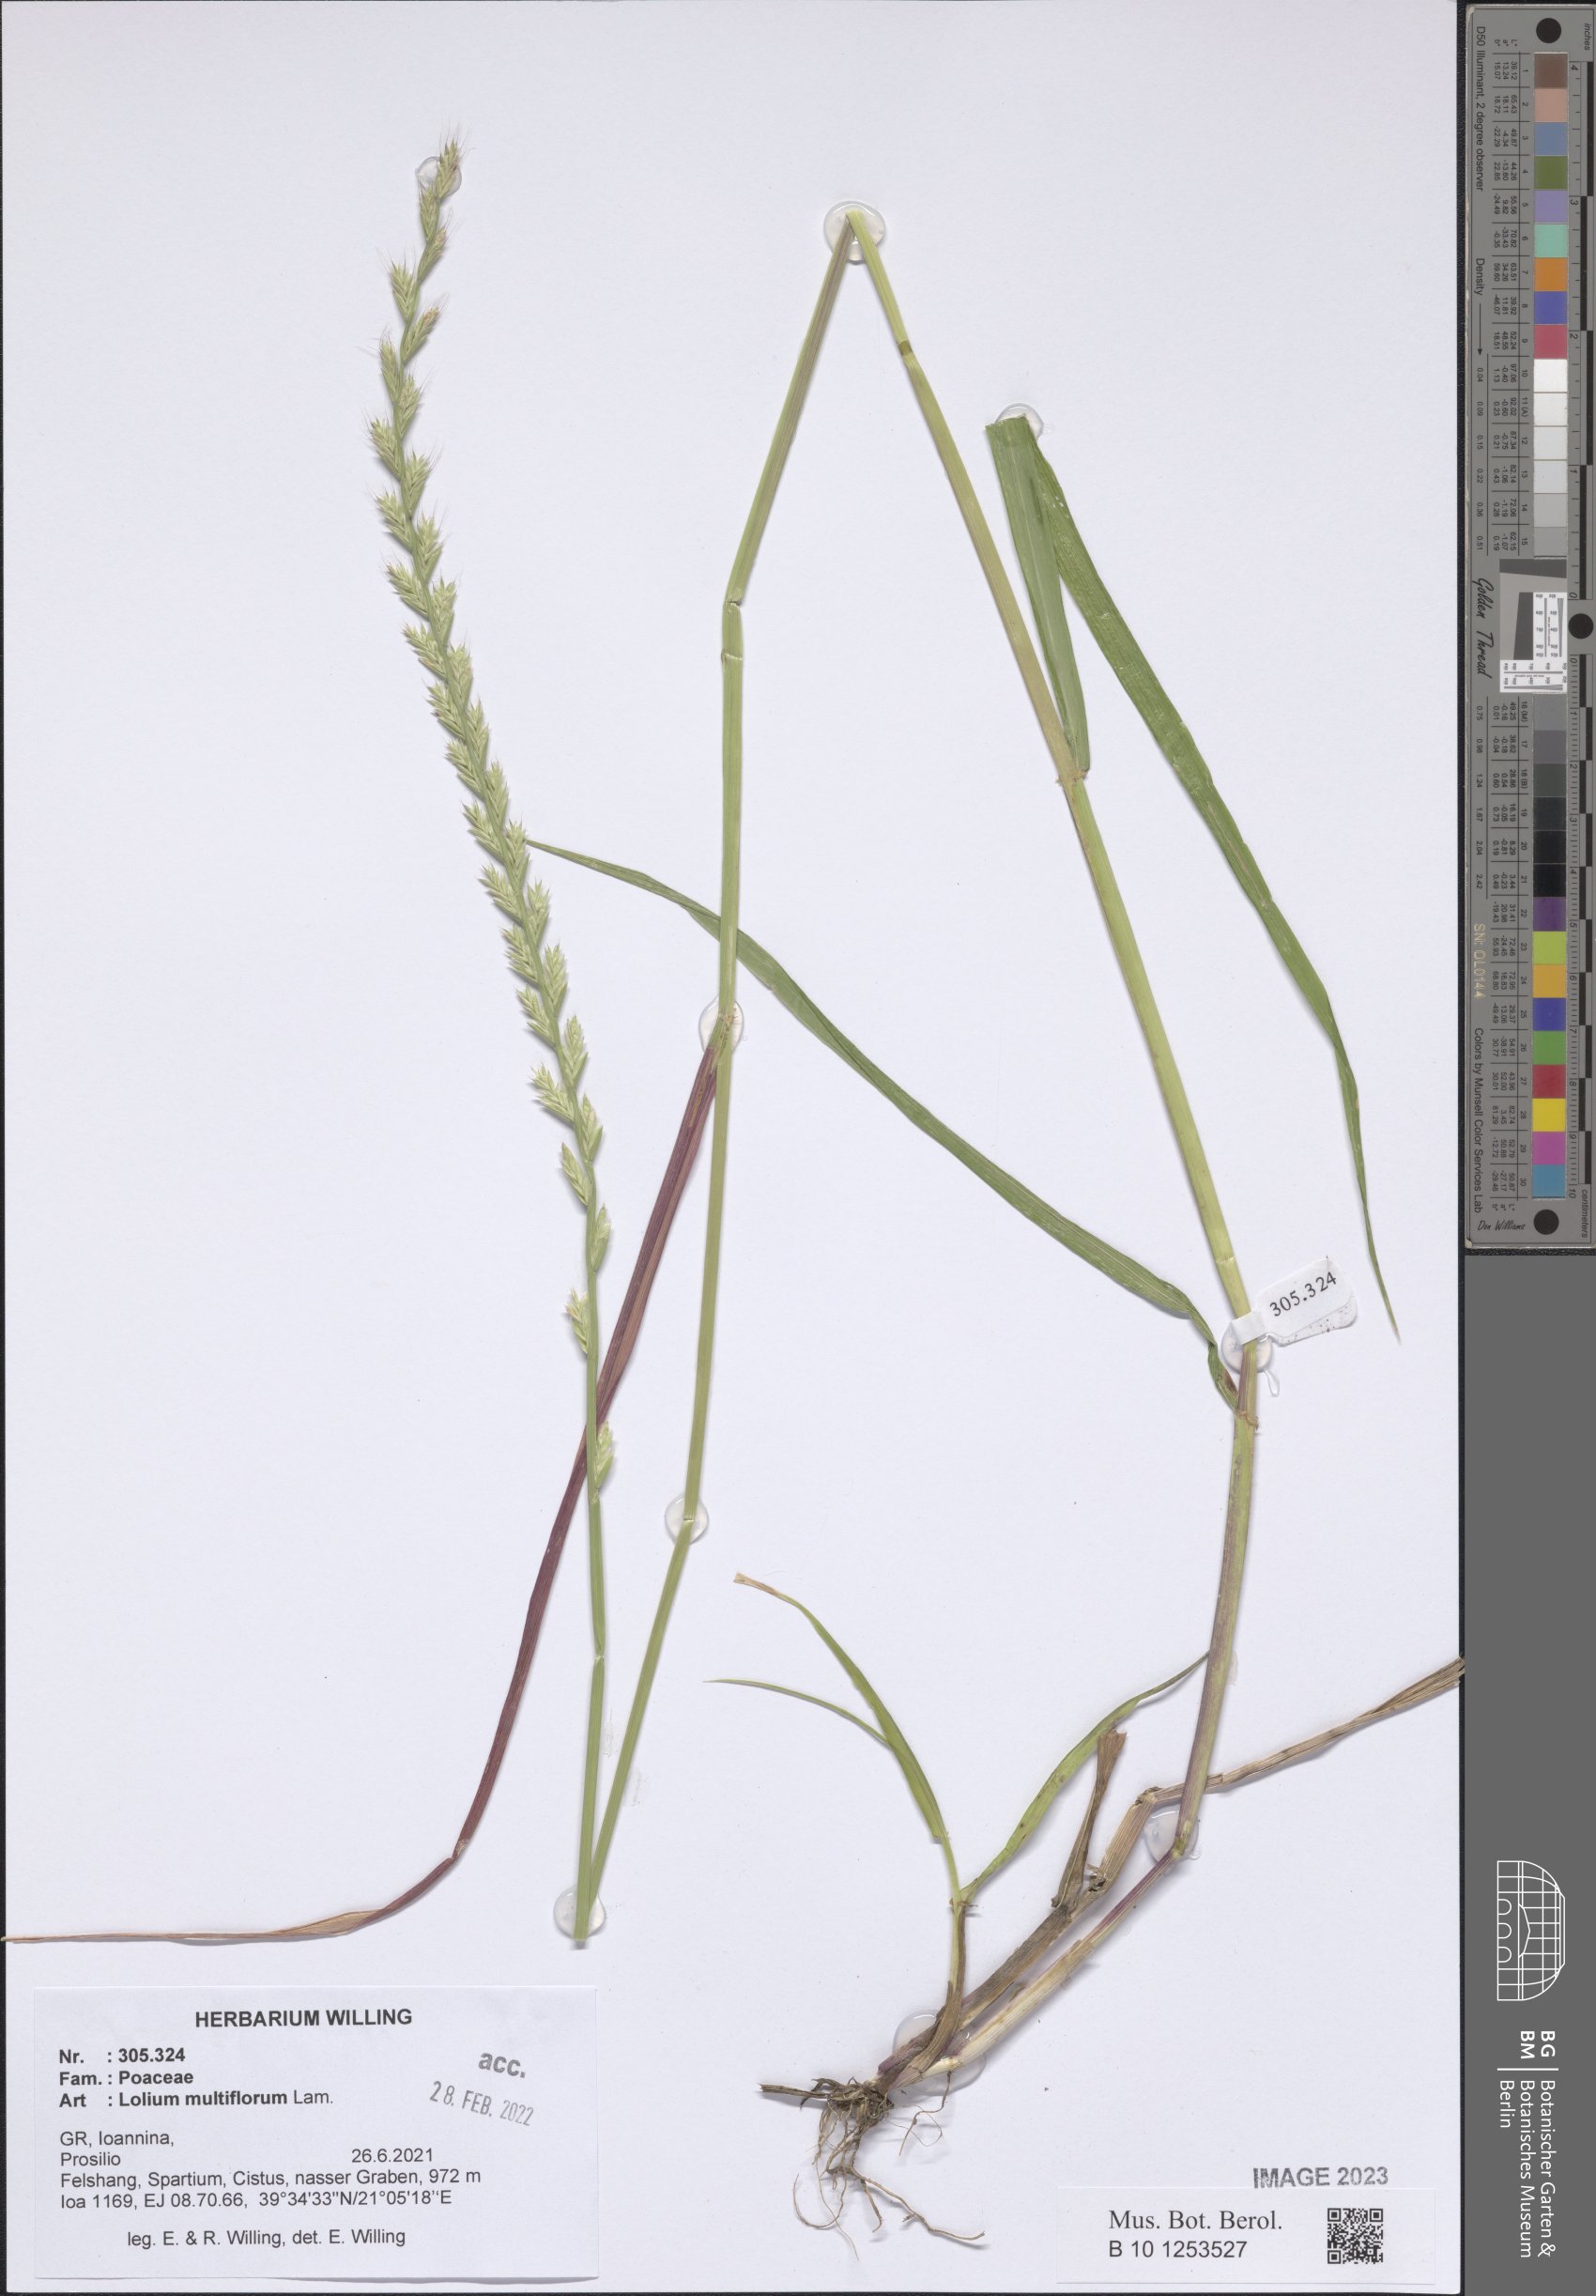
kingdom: Plantae
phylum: Tracheophyta
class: Liliopsida
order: Poales
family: Poaceae
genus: Lolium
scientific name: Lolium multiflorum
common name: Annual ryegrass
